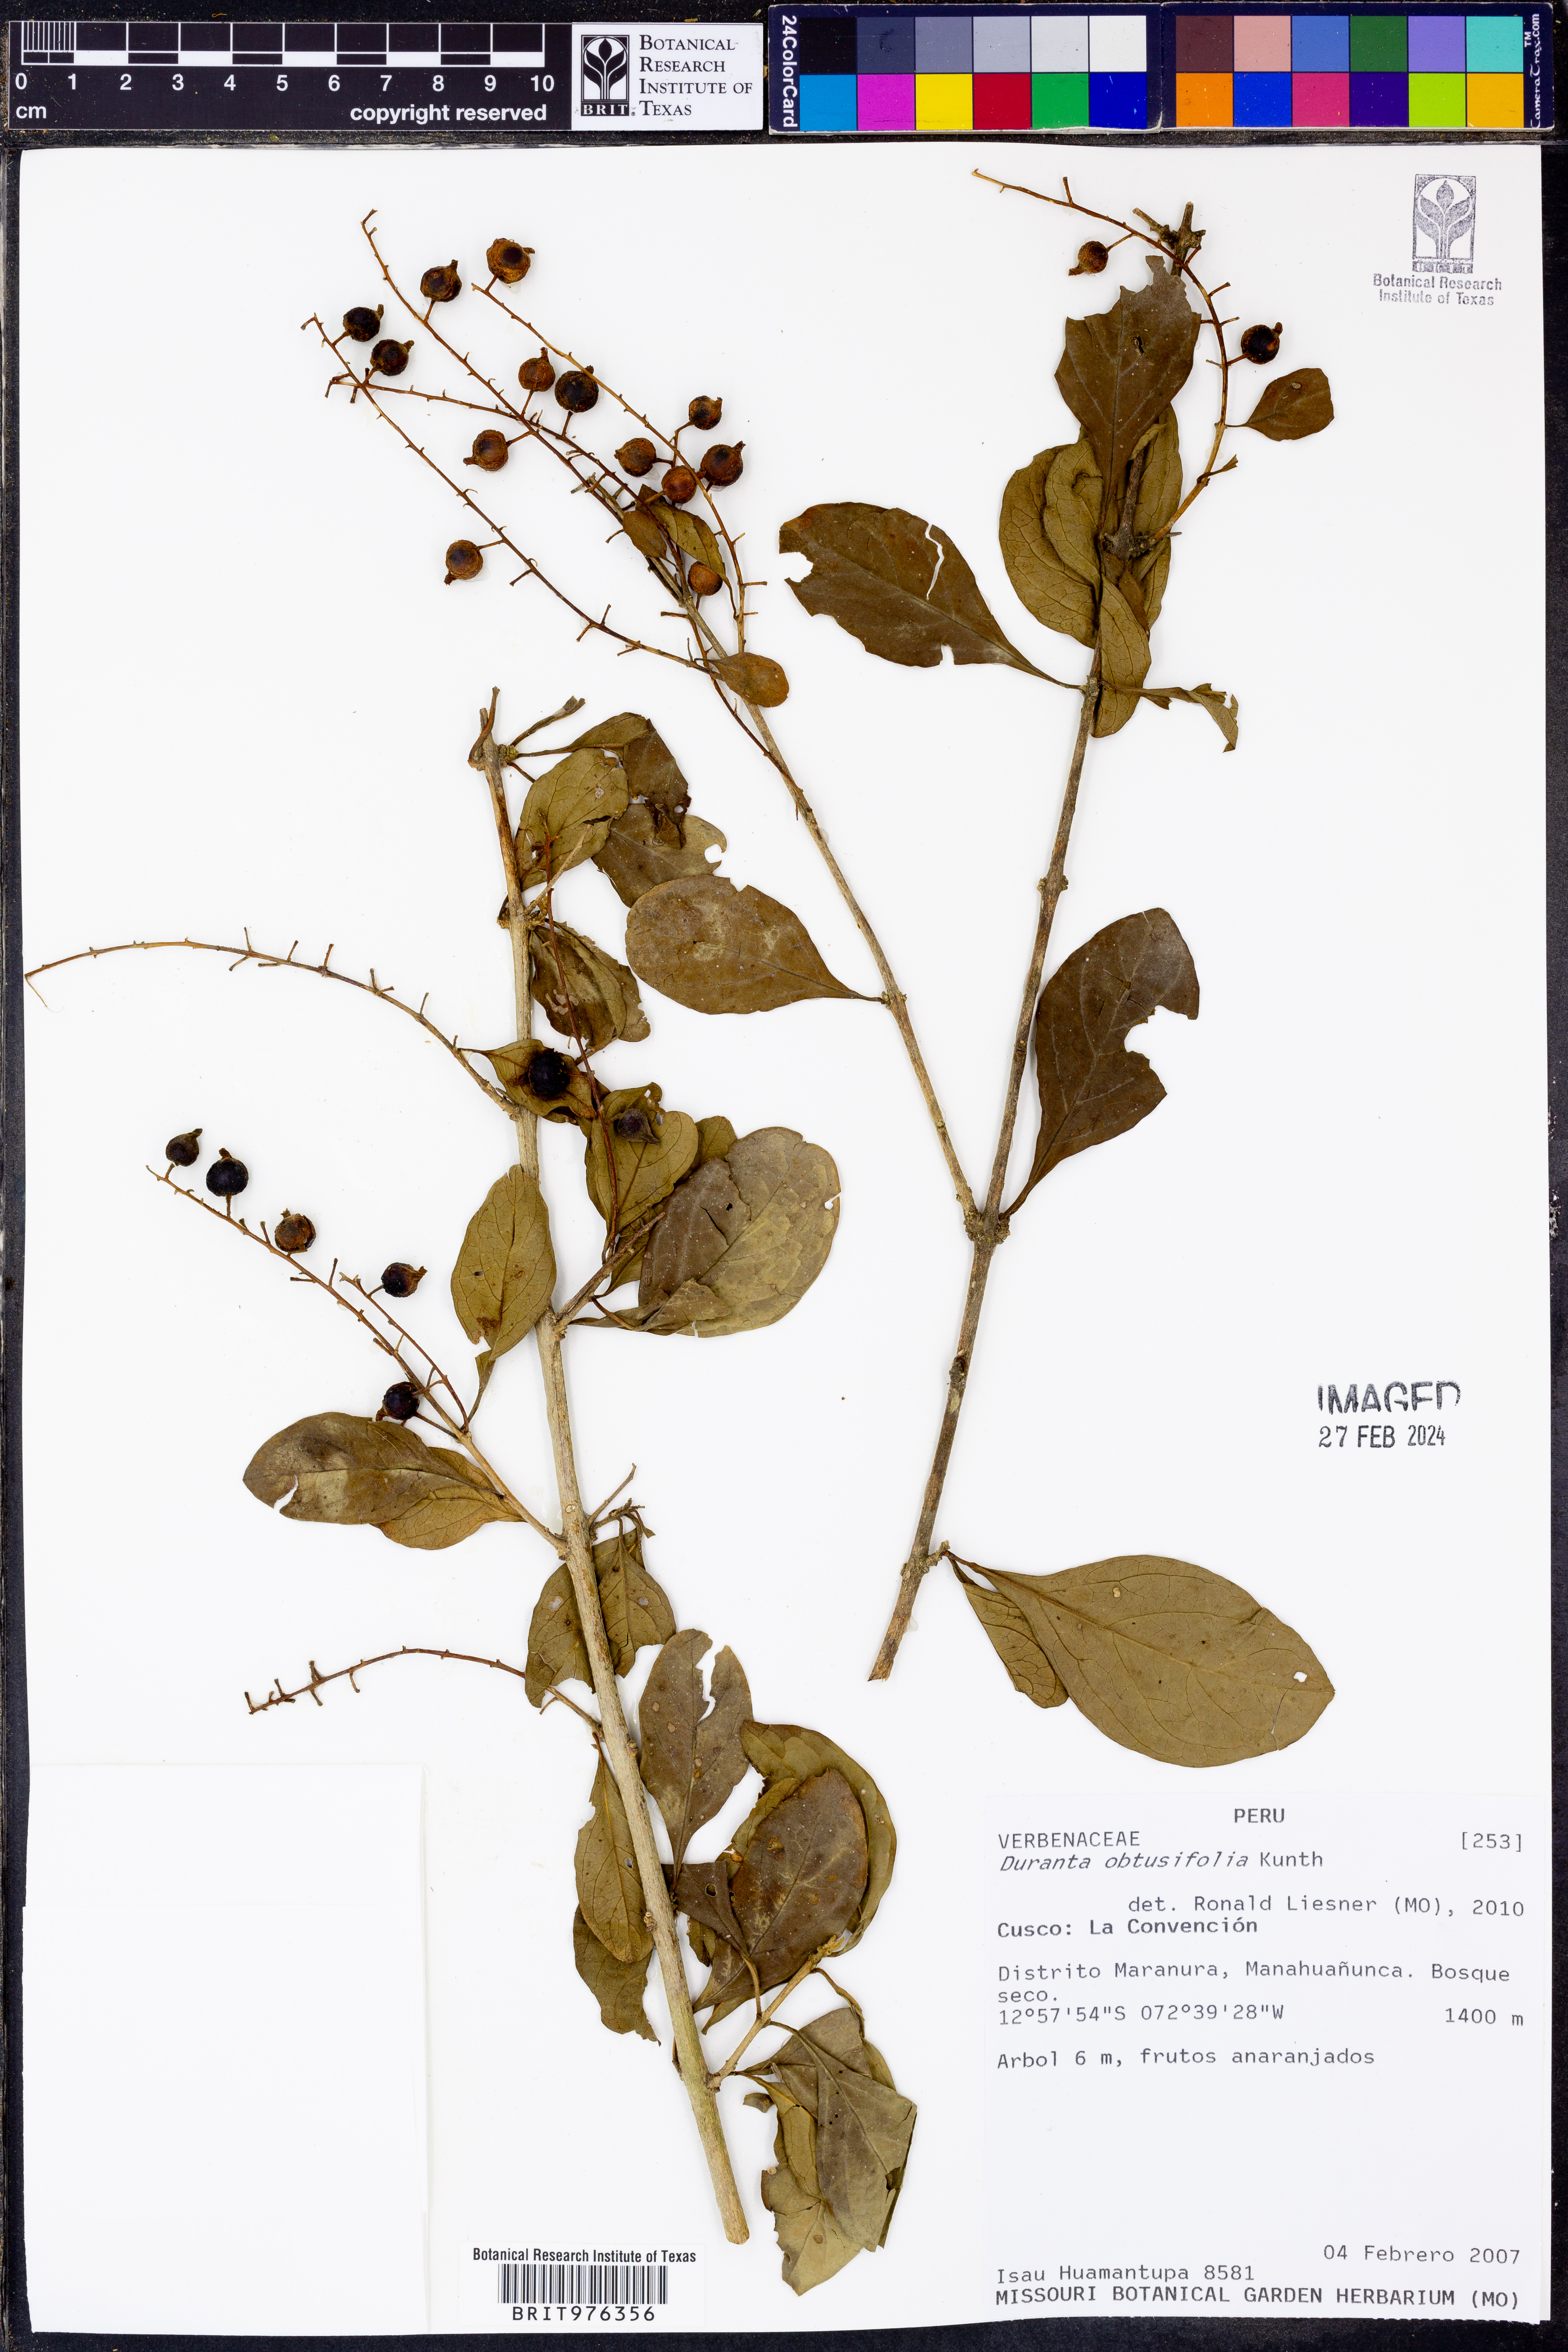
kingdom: Plantae
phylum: Tracheophyta
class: Magnoliopsida
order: Lamiales
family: Verbenaceae
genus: Duranta
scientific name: Duranta
